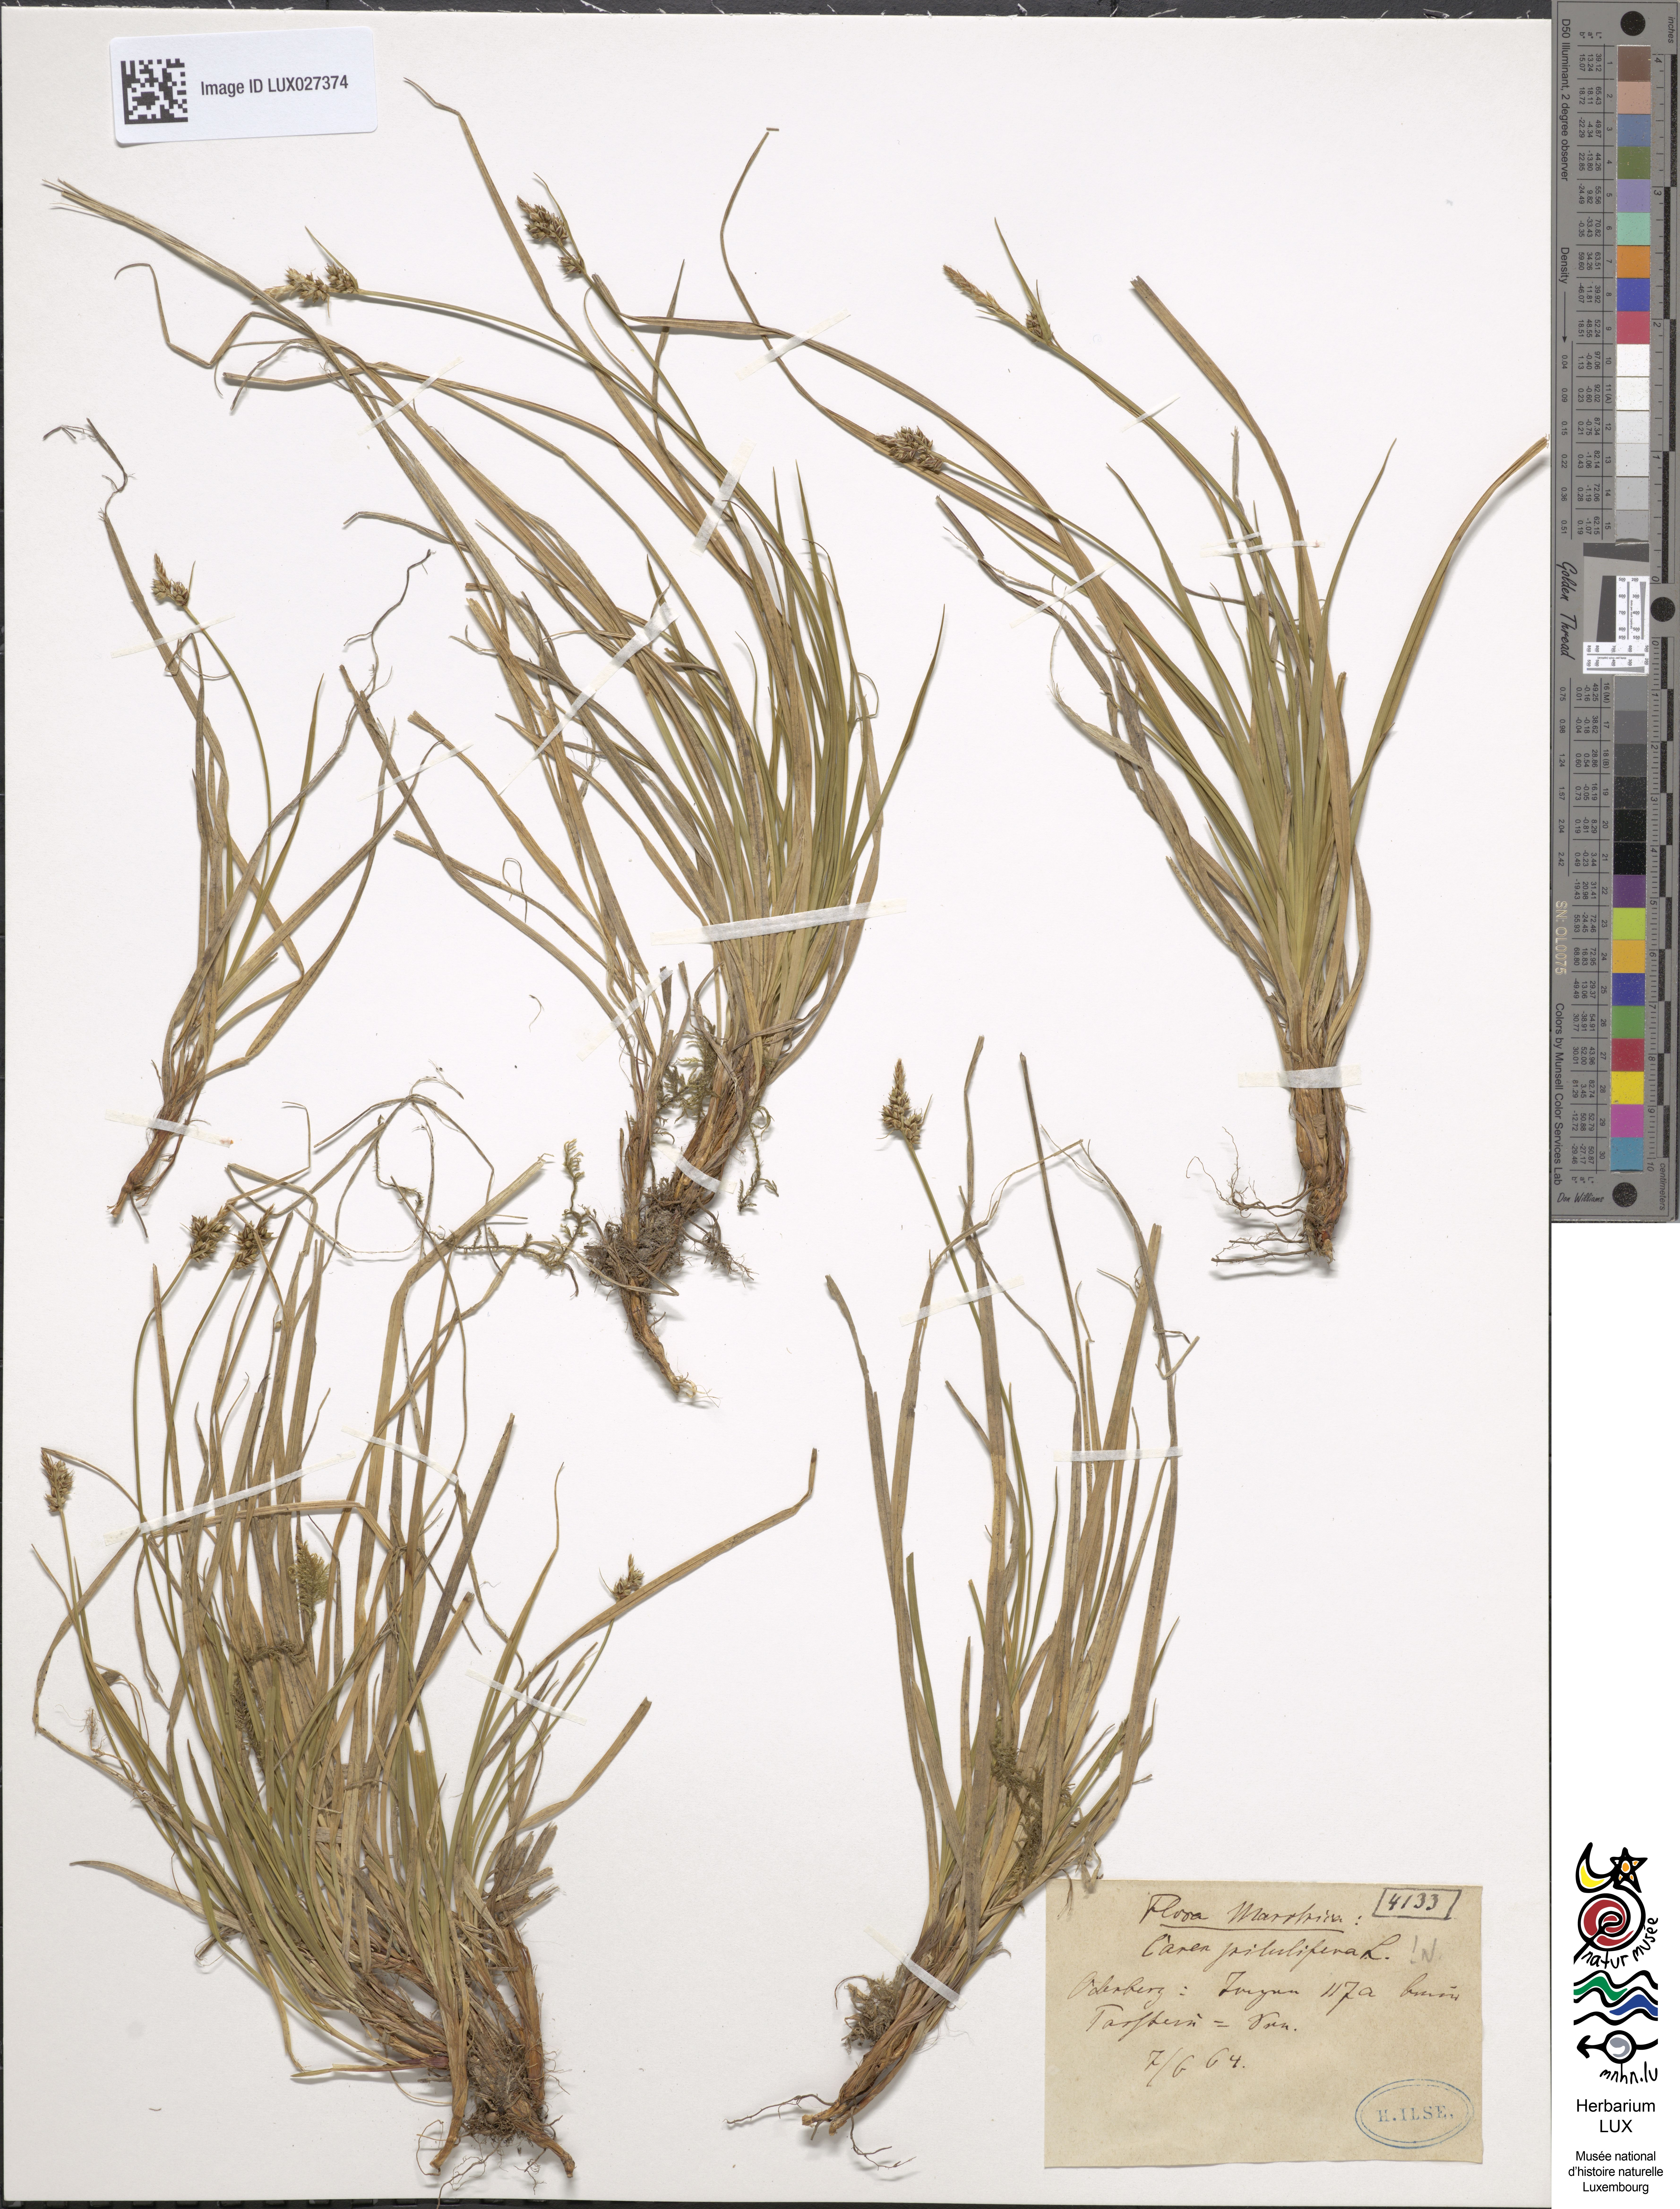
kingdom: Plantae
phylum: Tracheophyta
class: Liliopsida
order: Poales
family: Cyperaceae
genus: Carex
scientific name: Carex pilulifera
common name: Pill sedge
